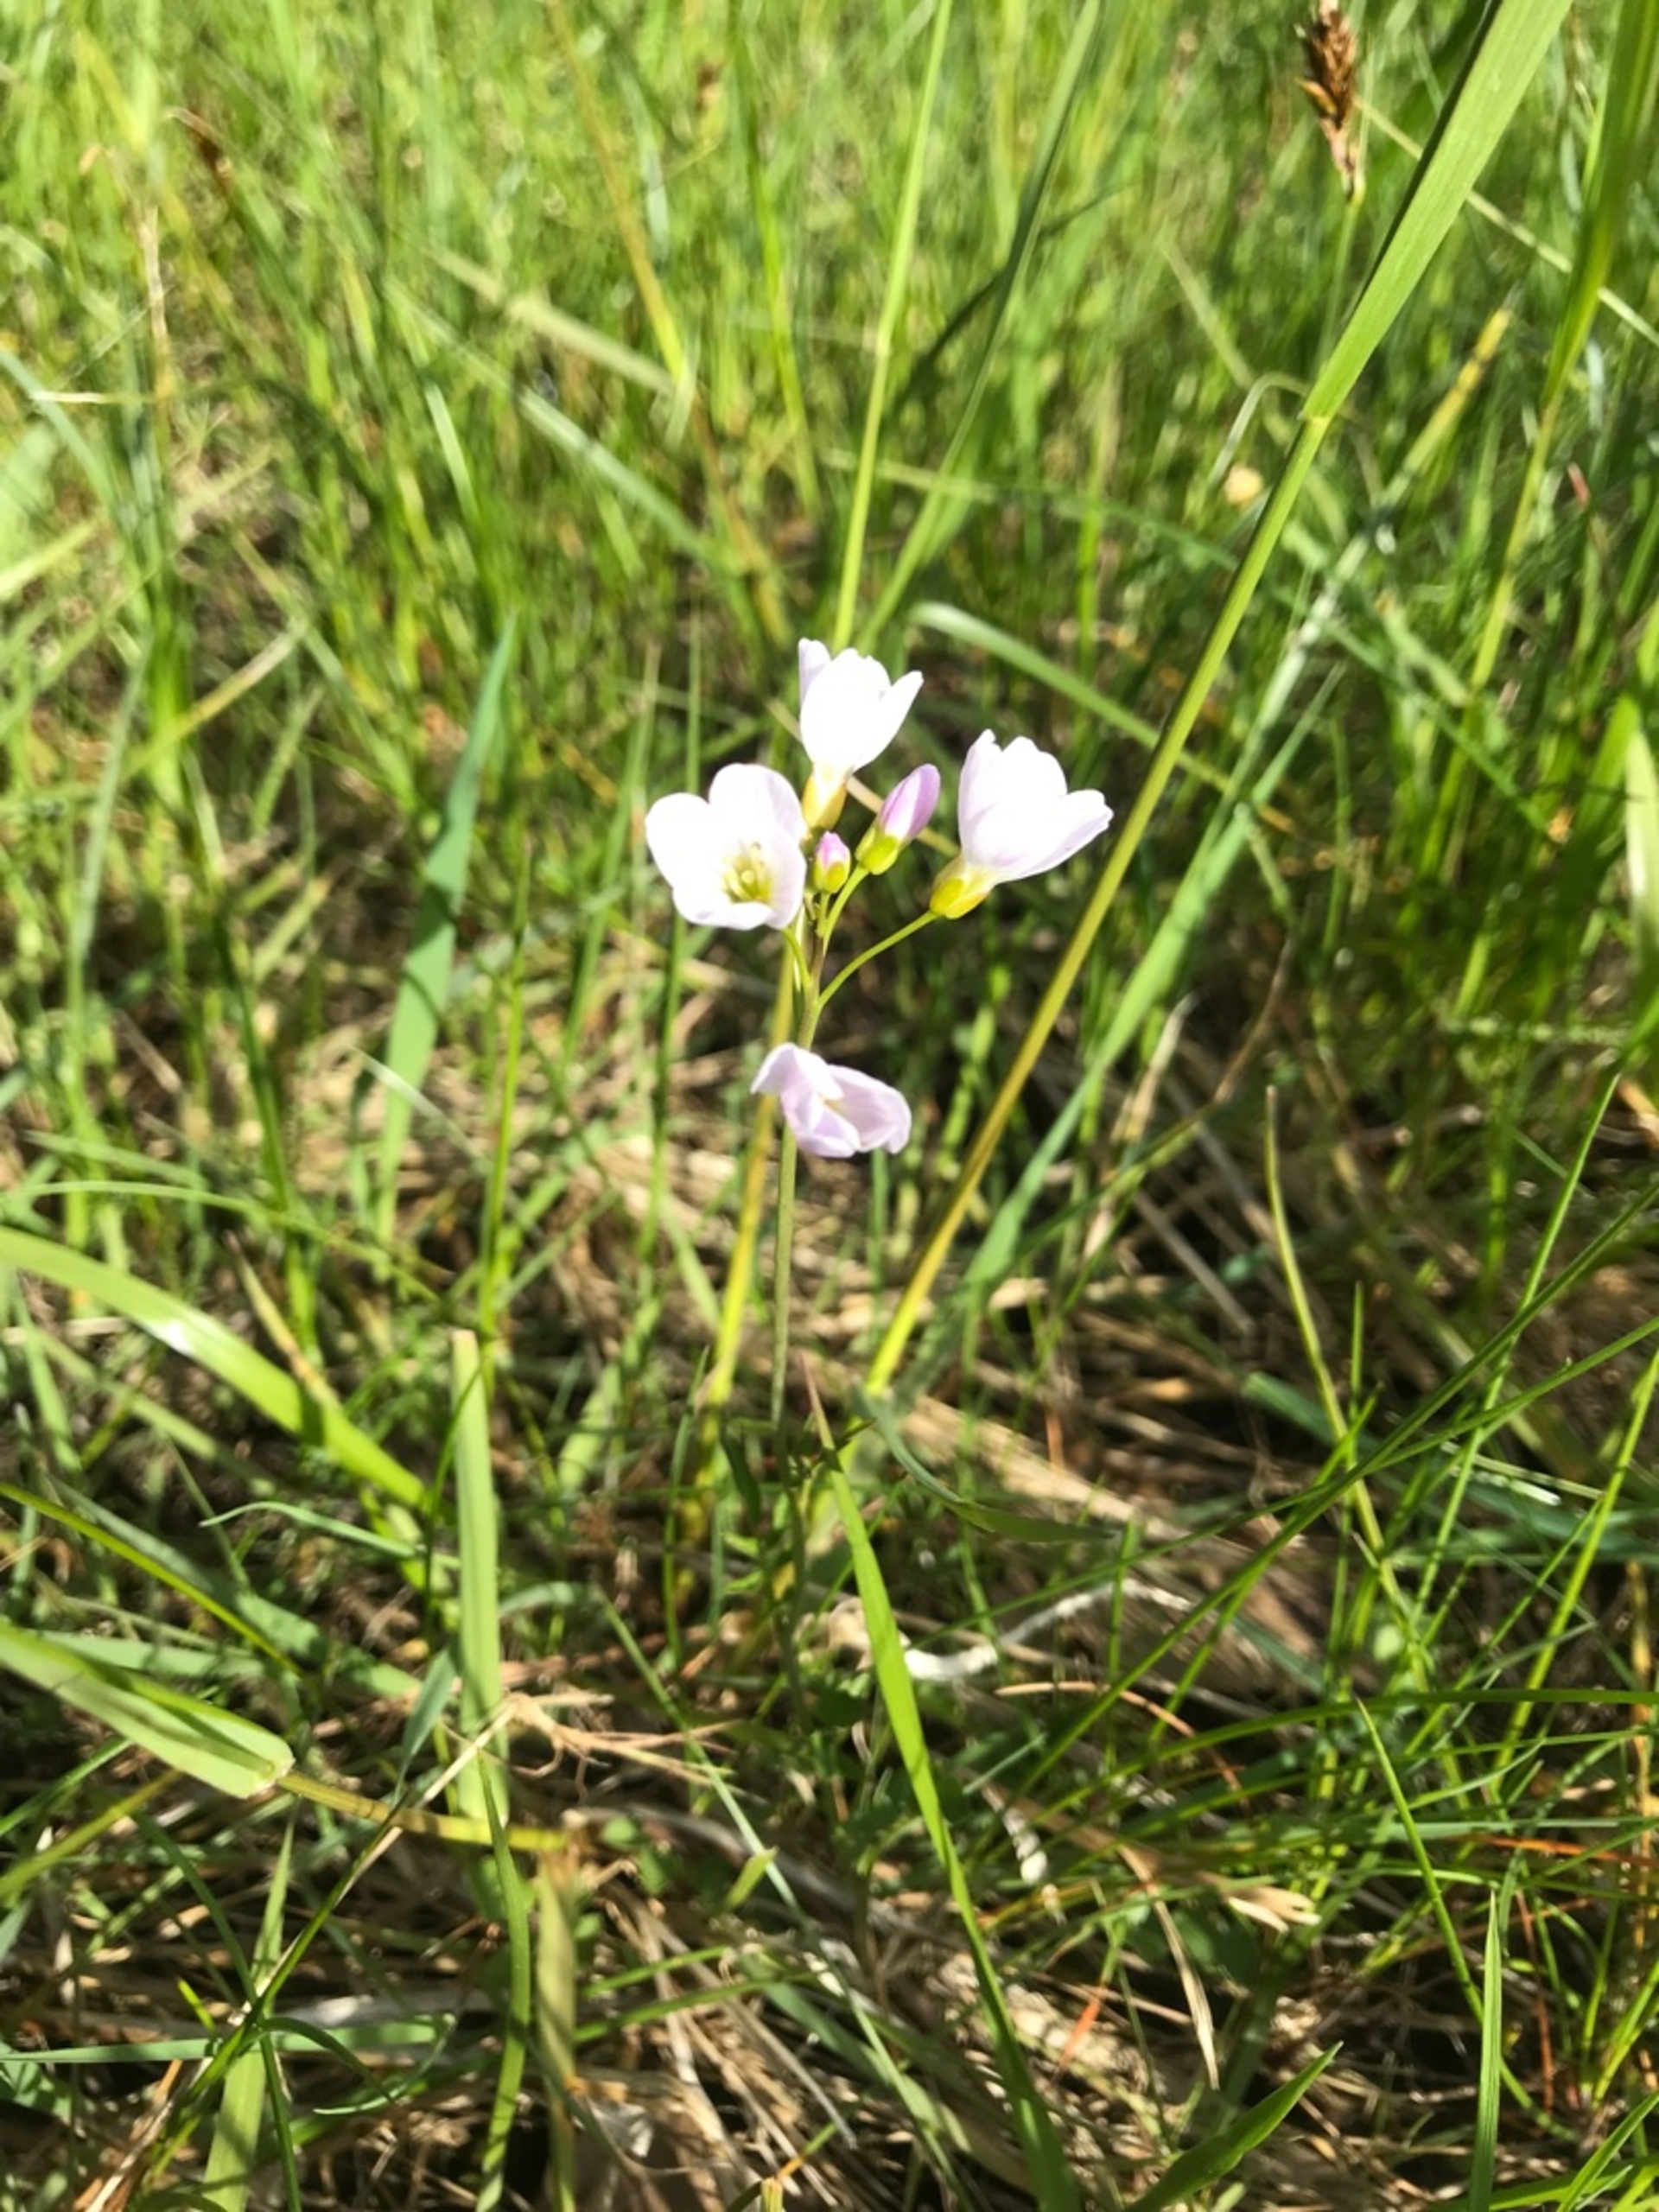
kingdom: Plantae
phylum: Tracheophyta
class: Magnoliopsida
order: Brassicales
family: Brassicaceae
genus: Cardamine
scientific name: Cardamine pratensis
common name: Engkarse
